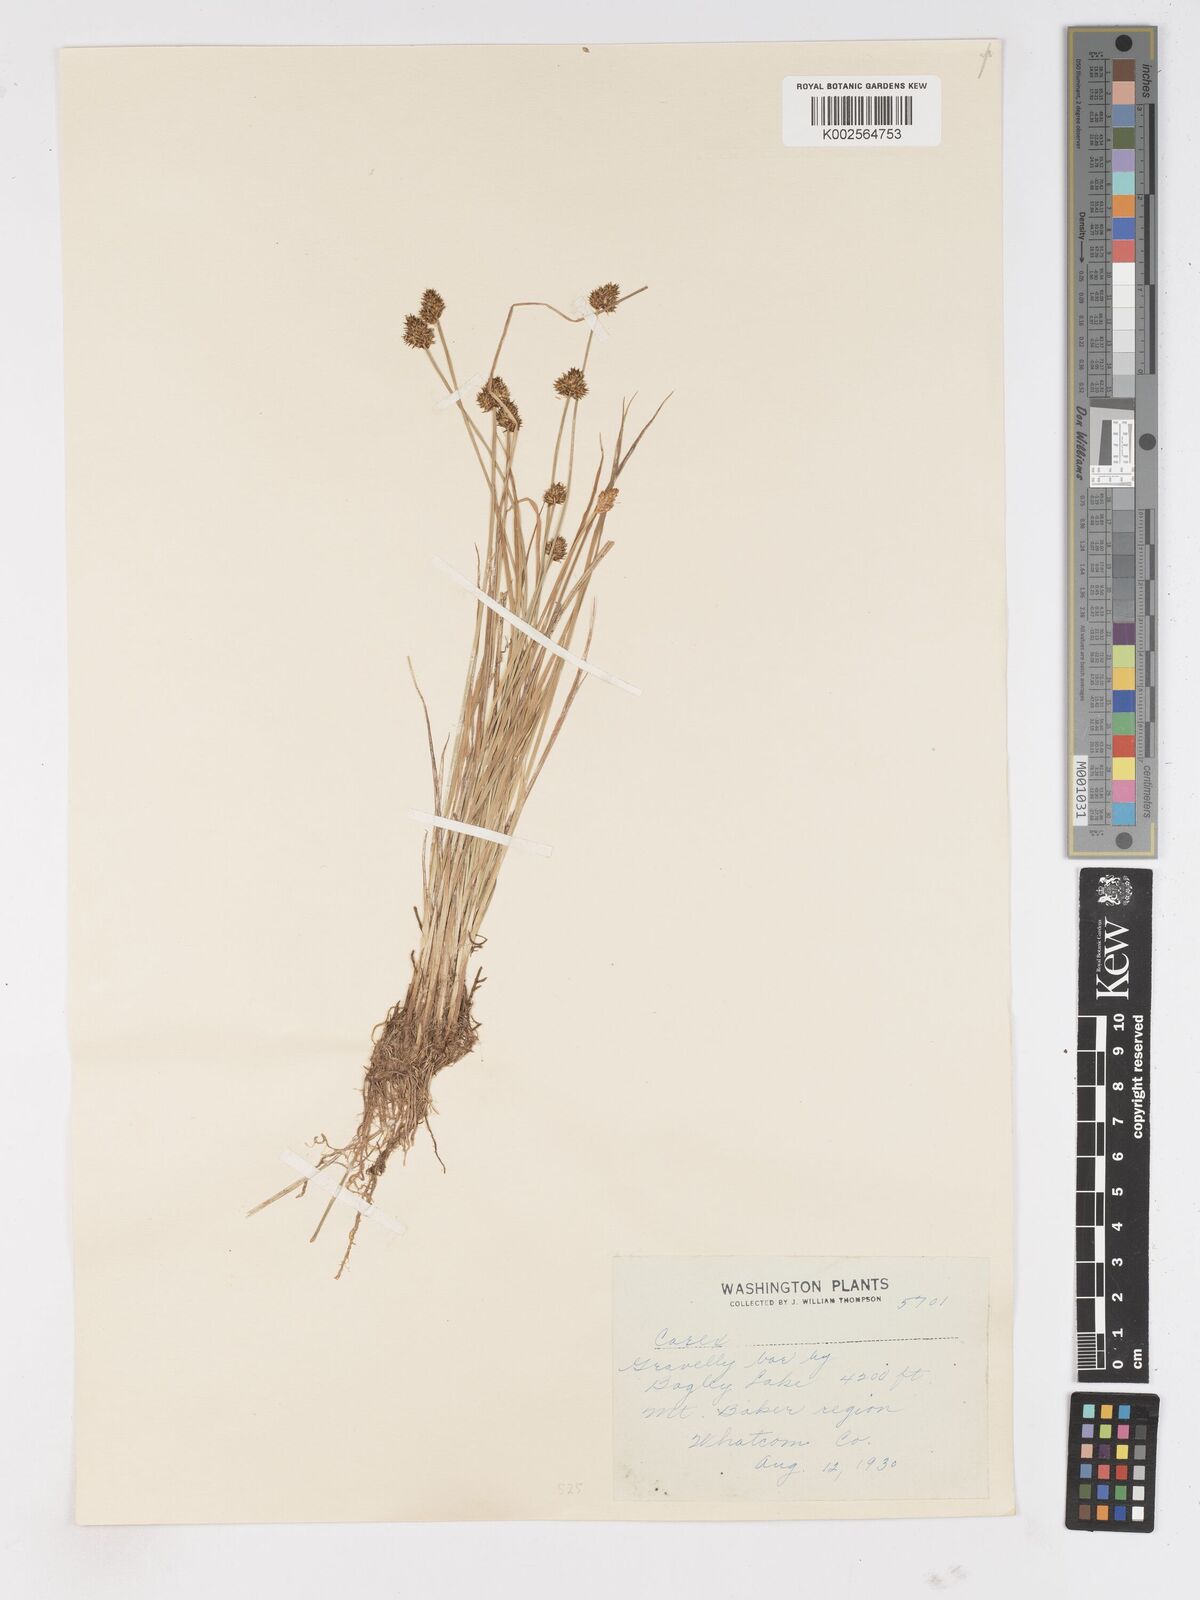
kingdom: Plantae
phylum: Tracheophyta
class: Liliopsida
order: Poales
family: Cyperaceae
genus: Carex
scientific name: Carex
